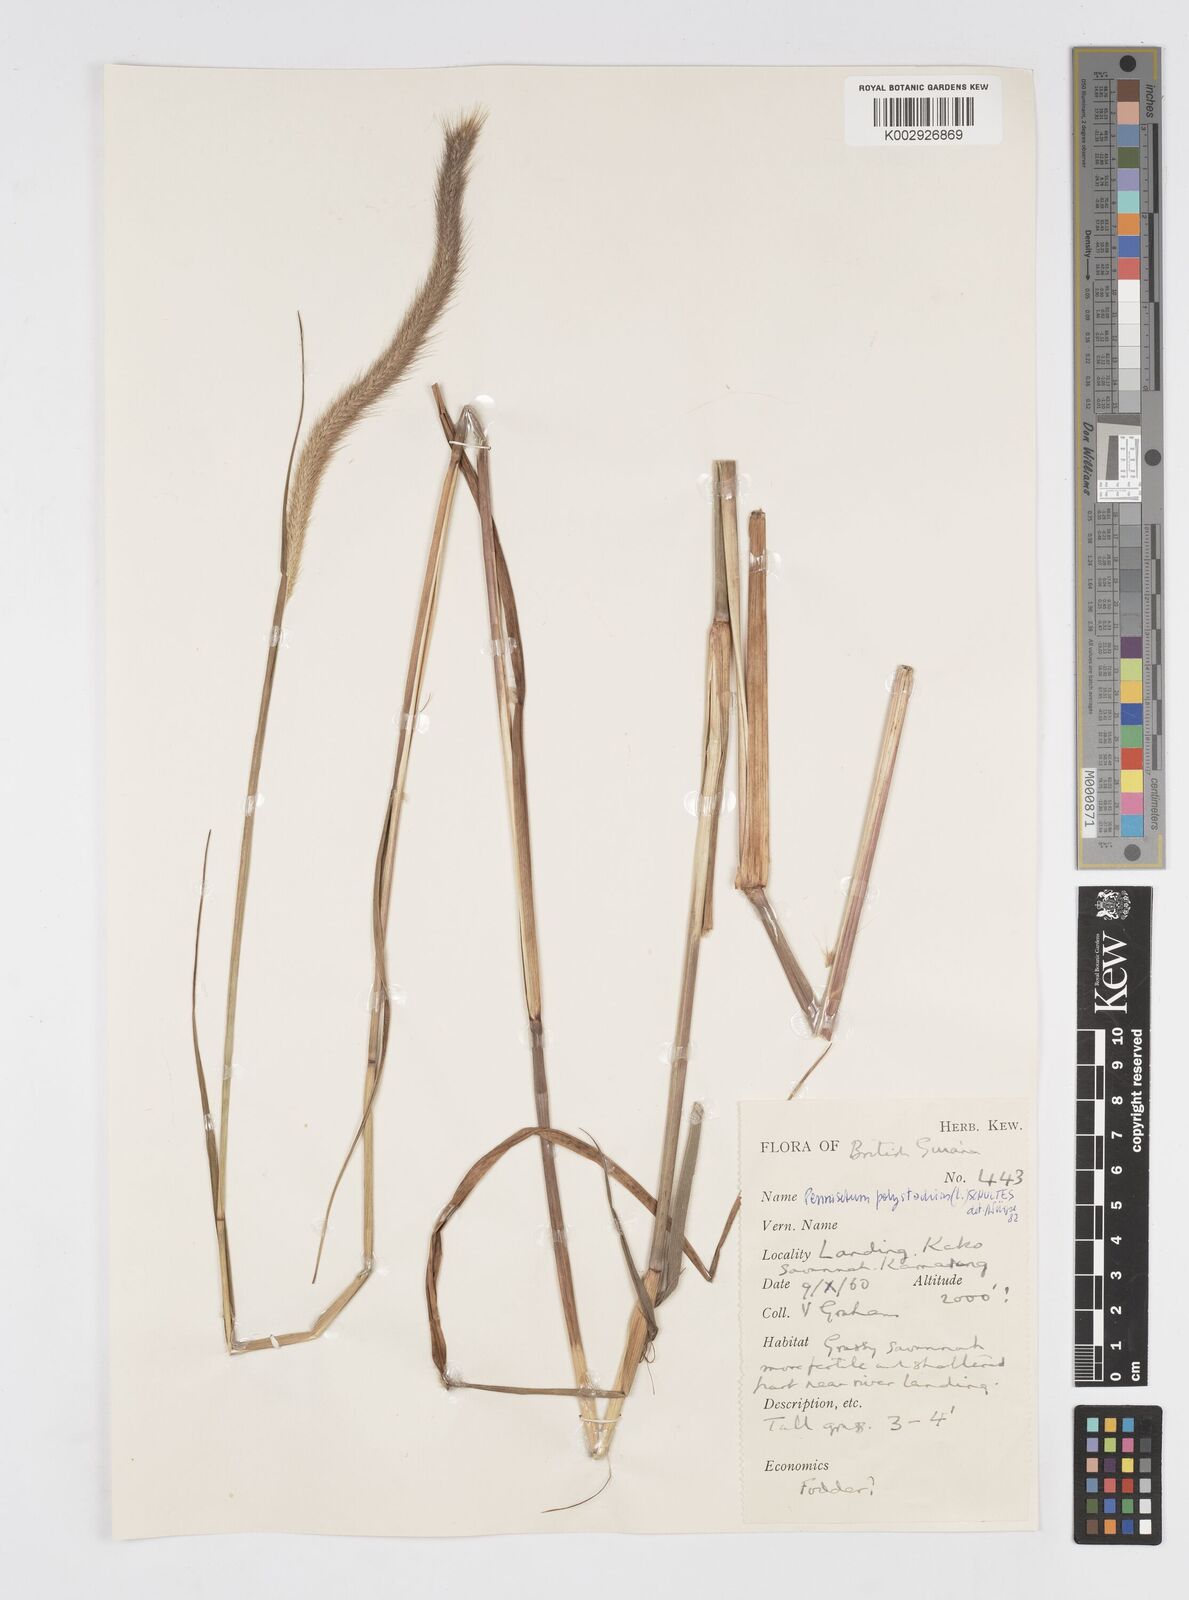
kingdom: Plantae
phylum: Tracheophyta
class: Liliopsida
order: Poales
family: Poaceae
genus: Cenchrus
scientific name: Cenchrus setosus
